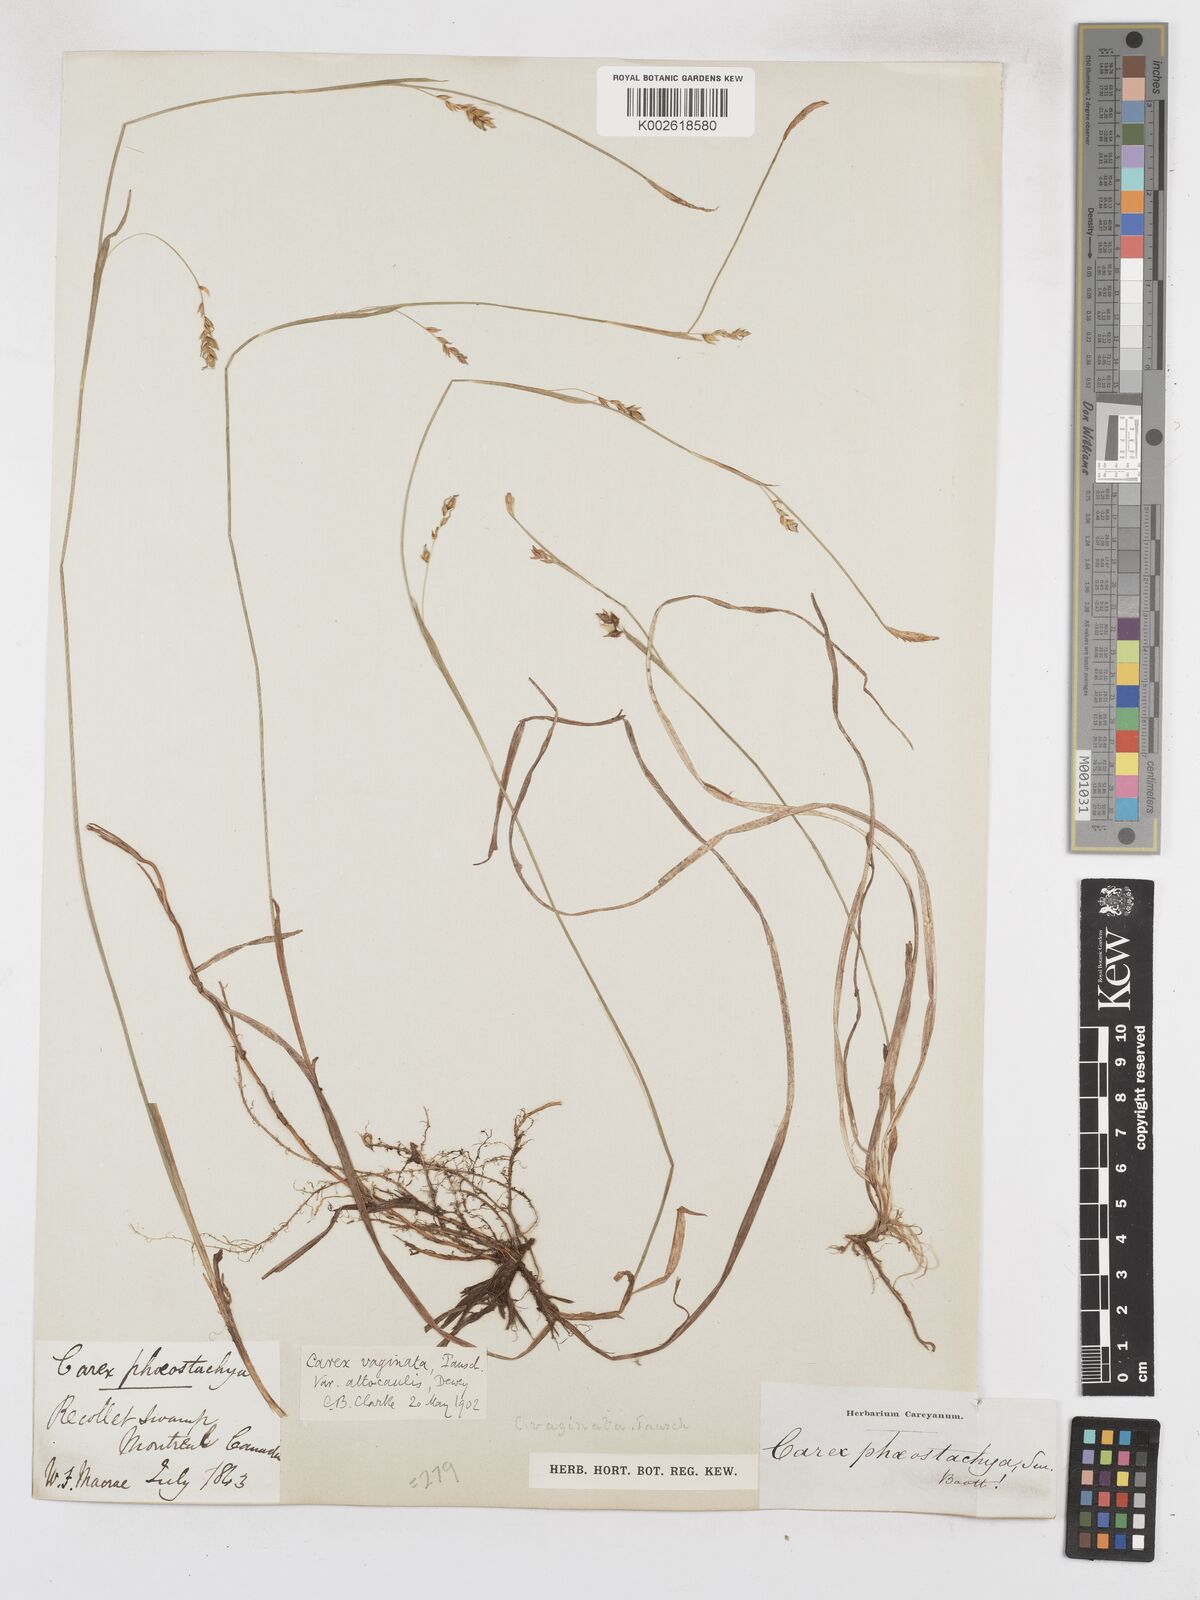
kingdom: Plantae
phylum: Tracheophyta
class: Liliopsida
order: Poales
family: Cyperaceae
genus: Carex
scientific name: Carex vaginata
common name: Sheathed sedge
